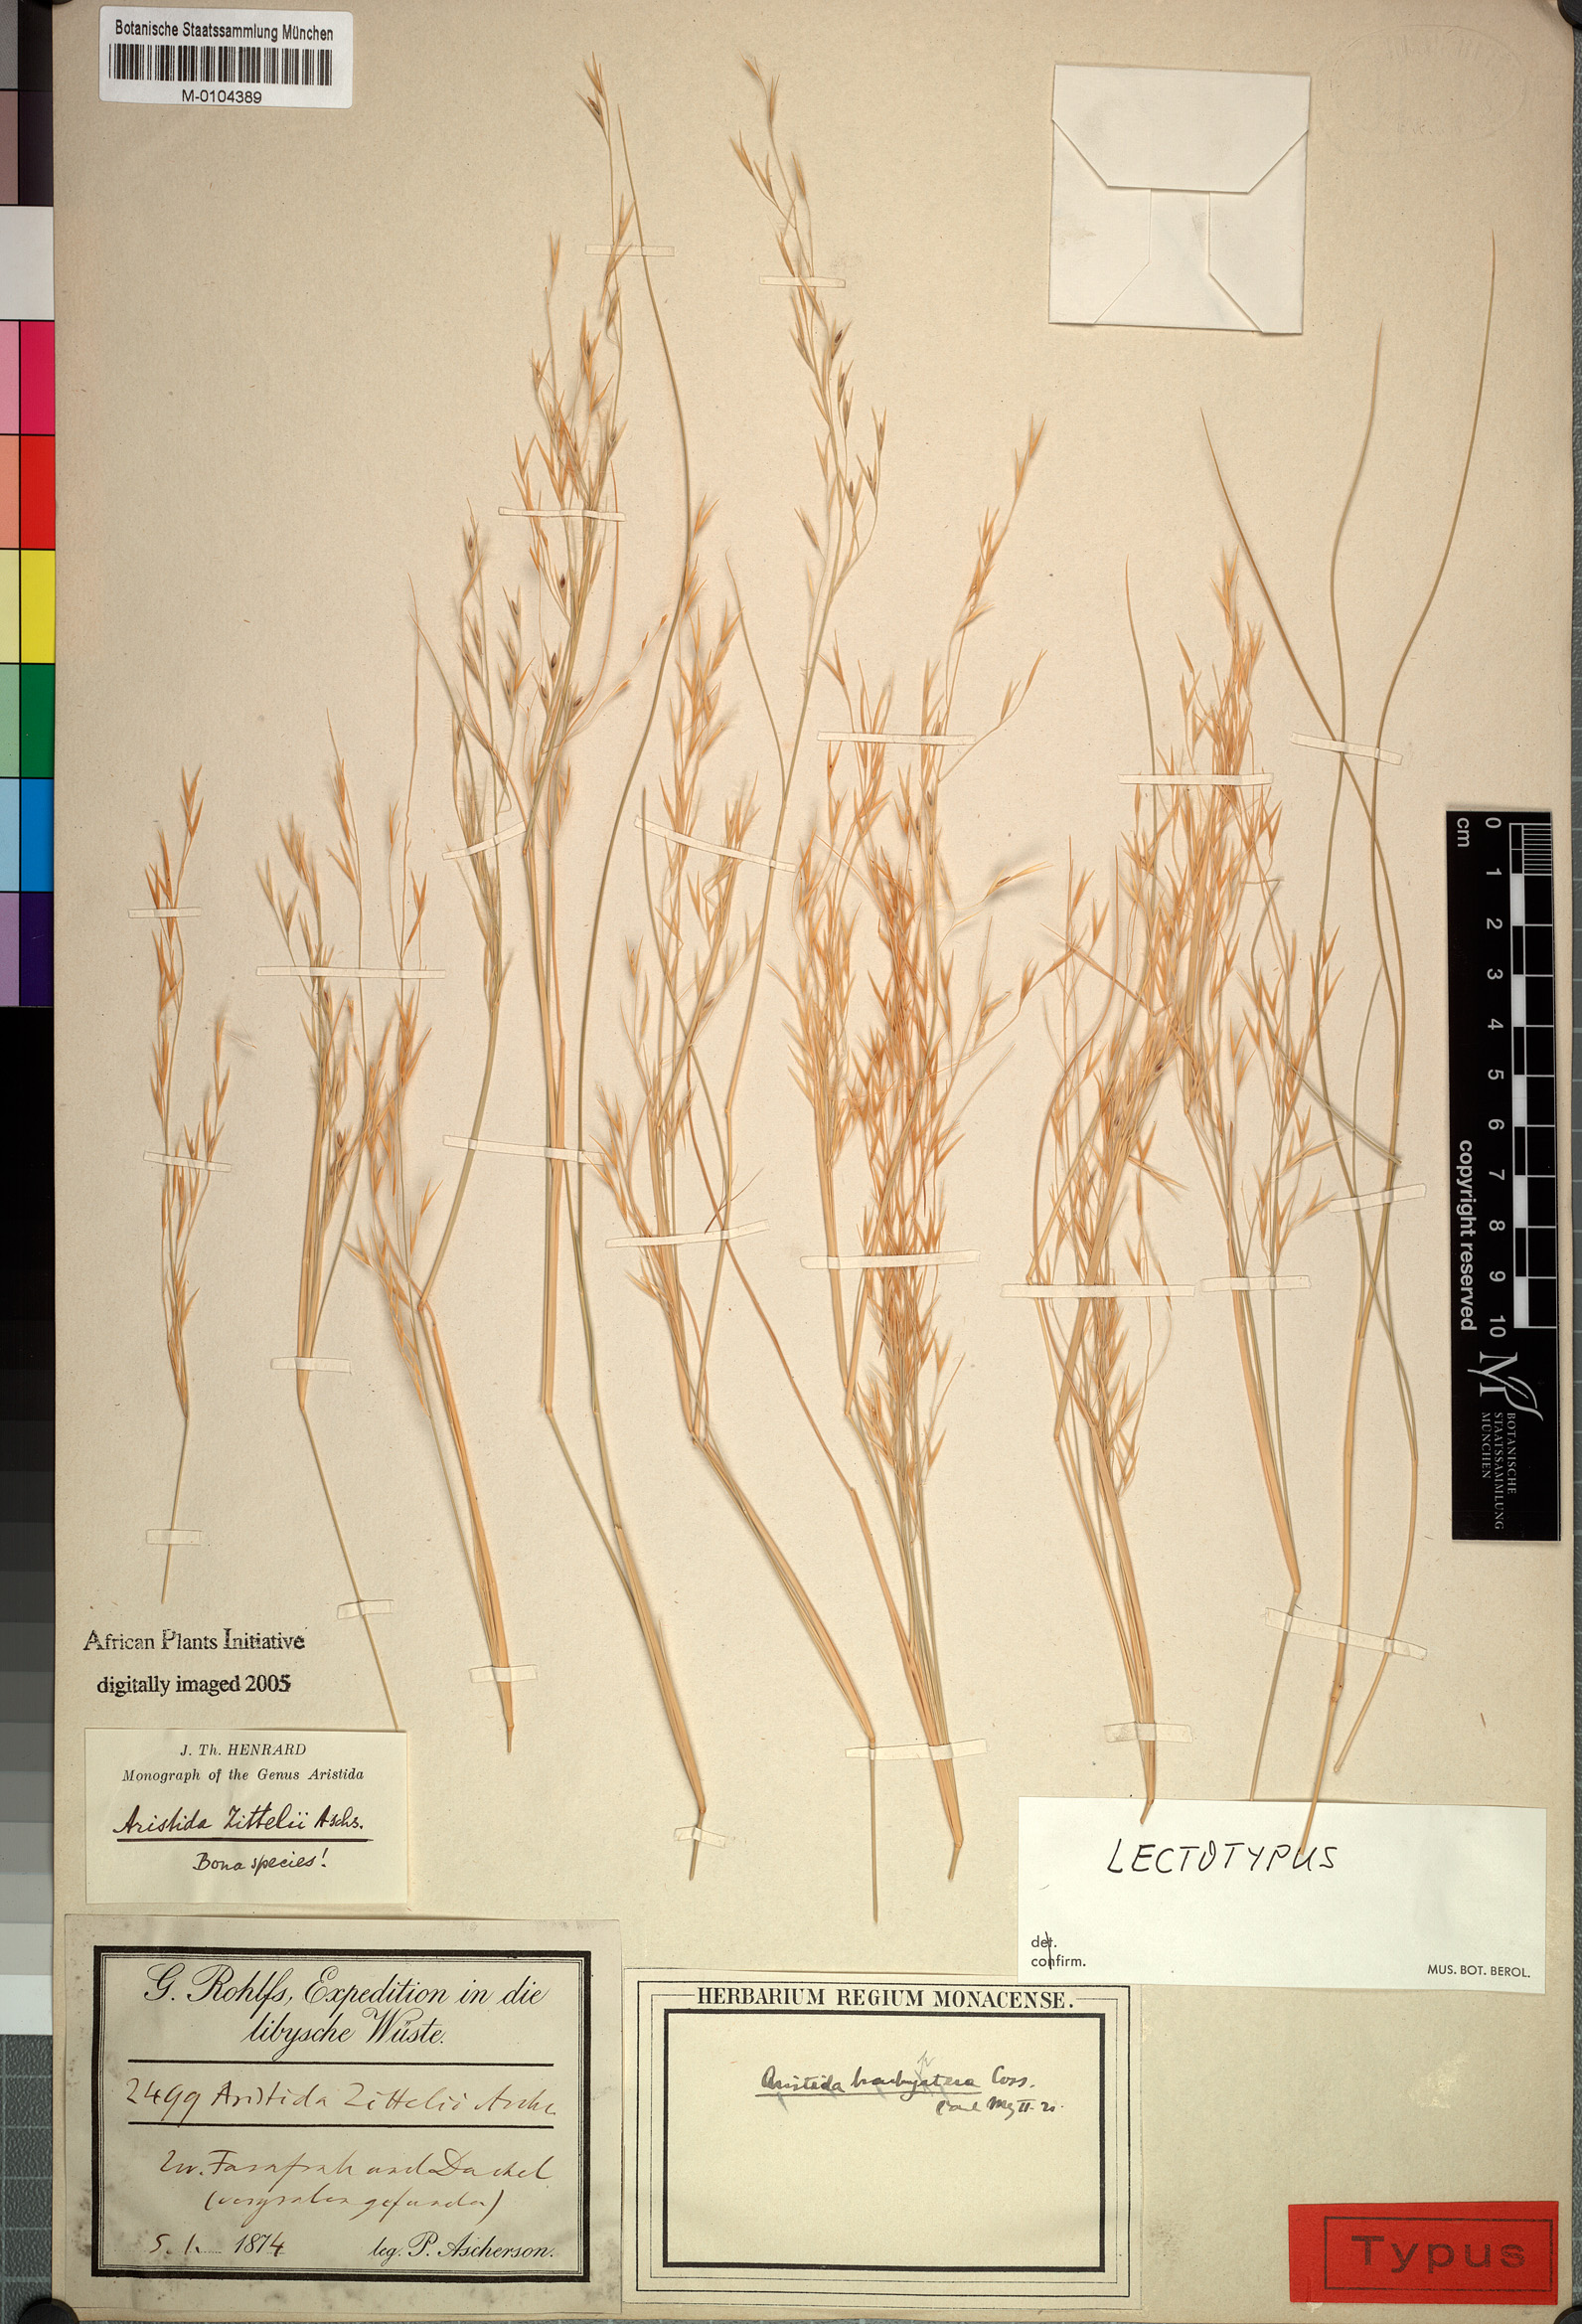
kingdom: Plantae
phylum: Tracheophyta
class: Liliopsida
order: Poales
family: Poaceae
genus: Stipagrostis
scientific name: Stipagrostis acutiflora
